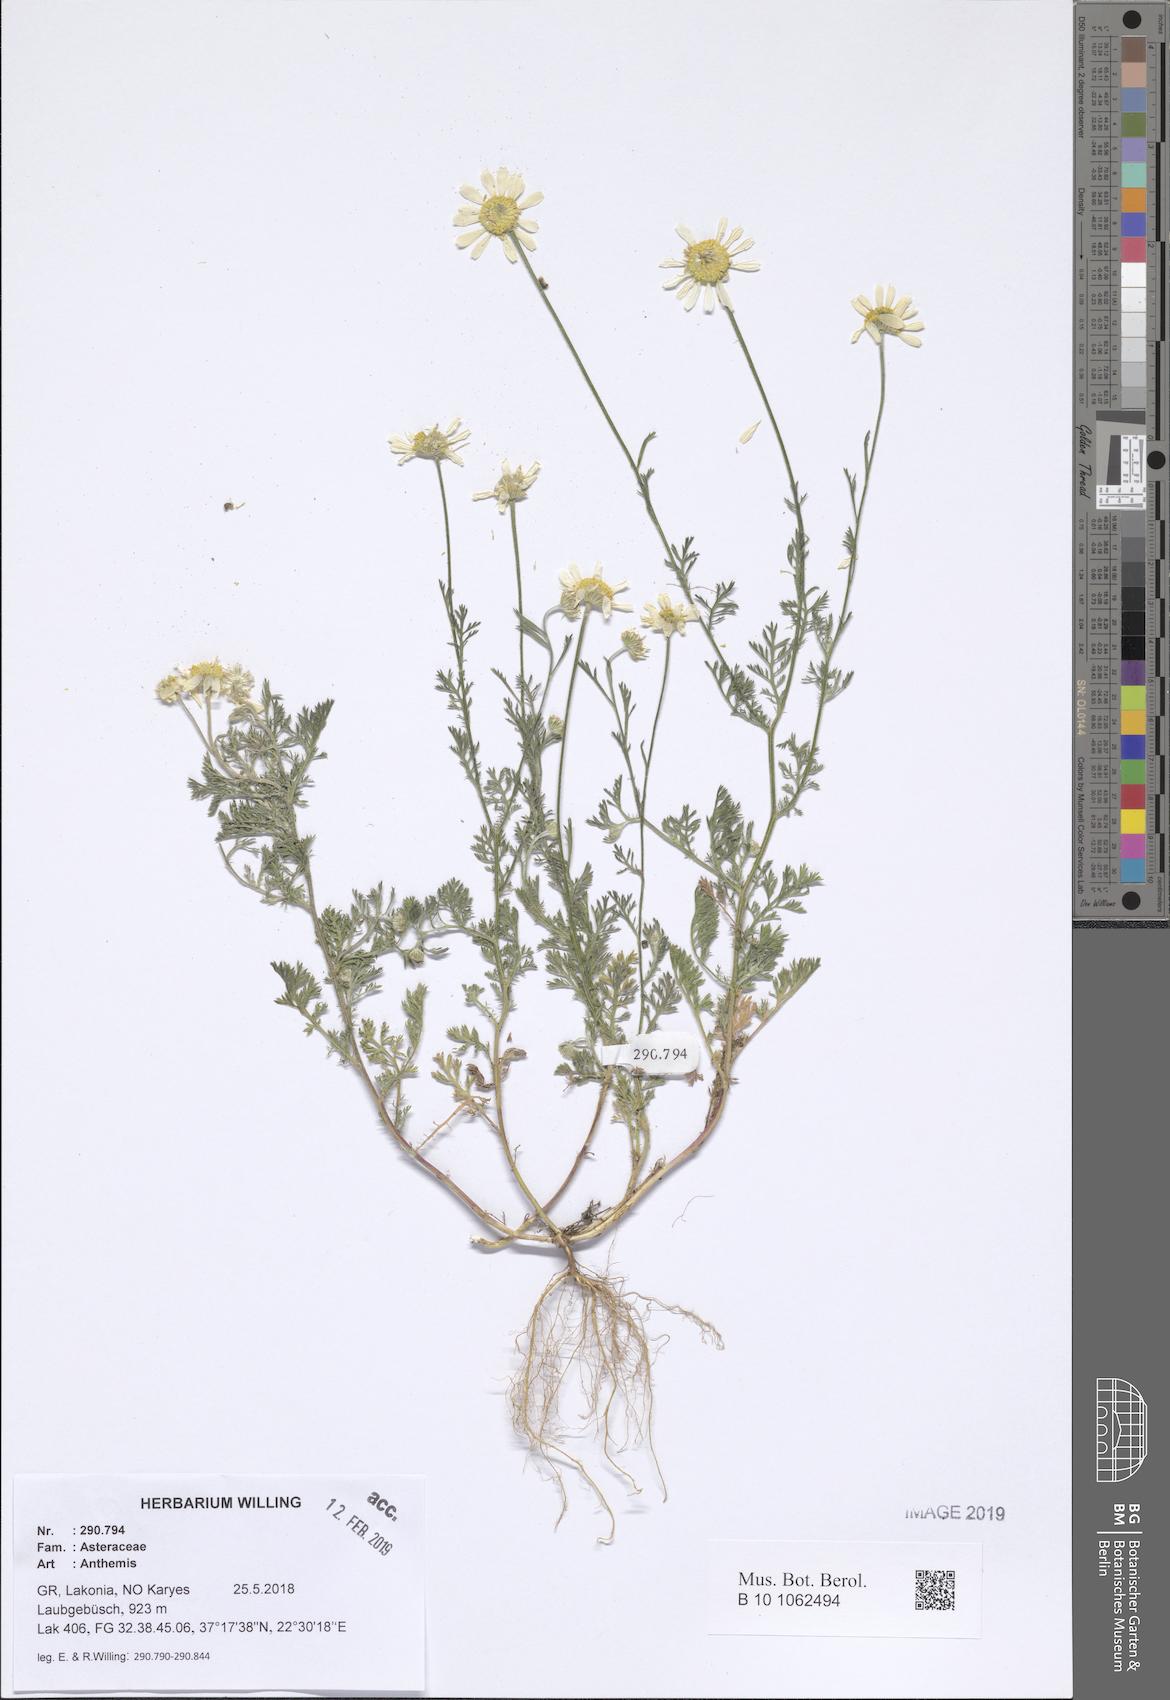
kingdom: Plantae
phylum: Tracheophyta
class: Magnoliopsida
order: Asterales
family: Asteraceae
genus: Anthemis
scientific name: Anthemis
